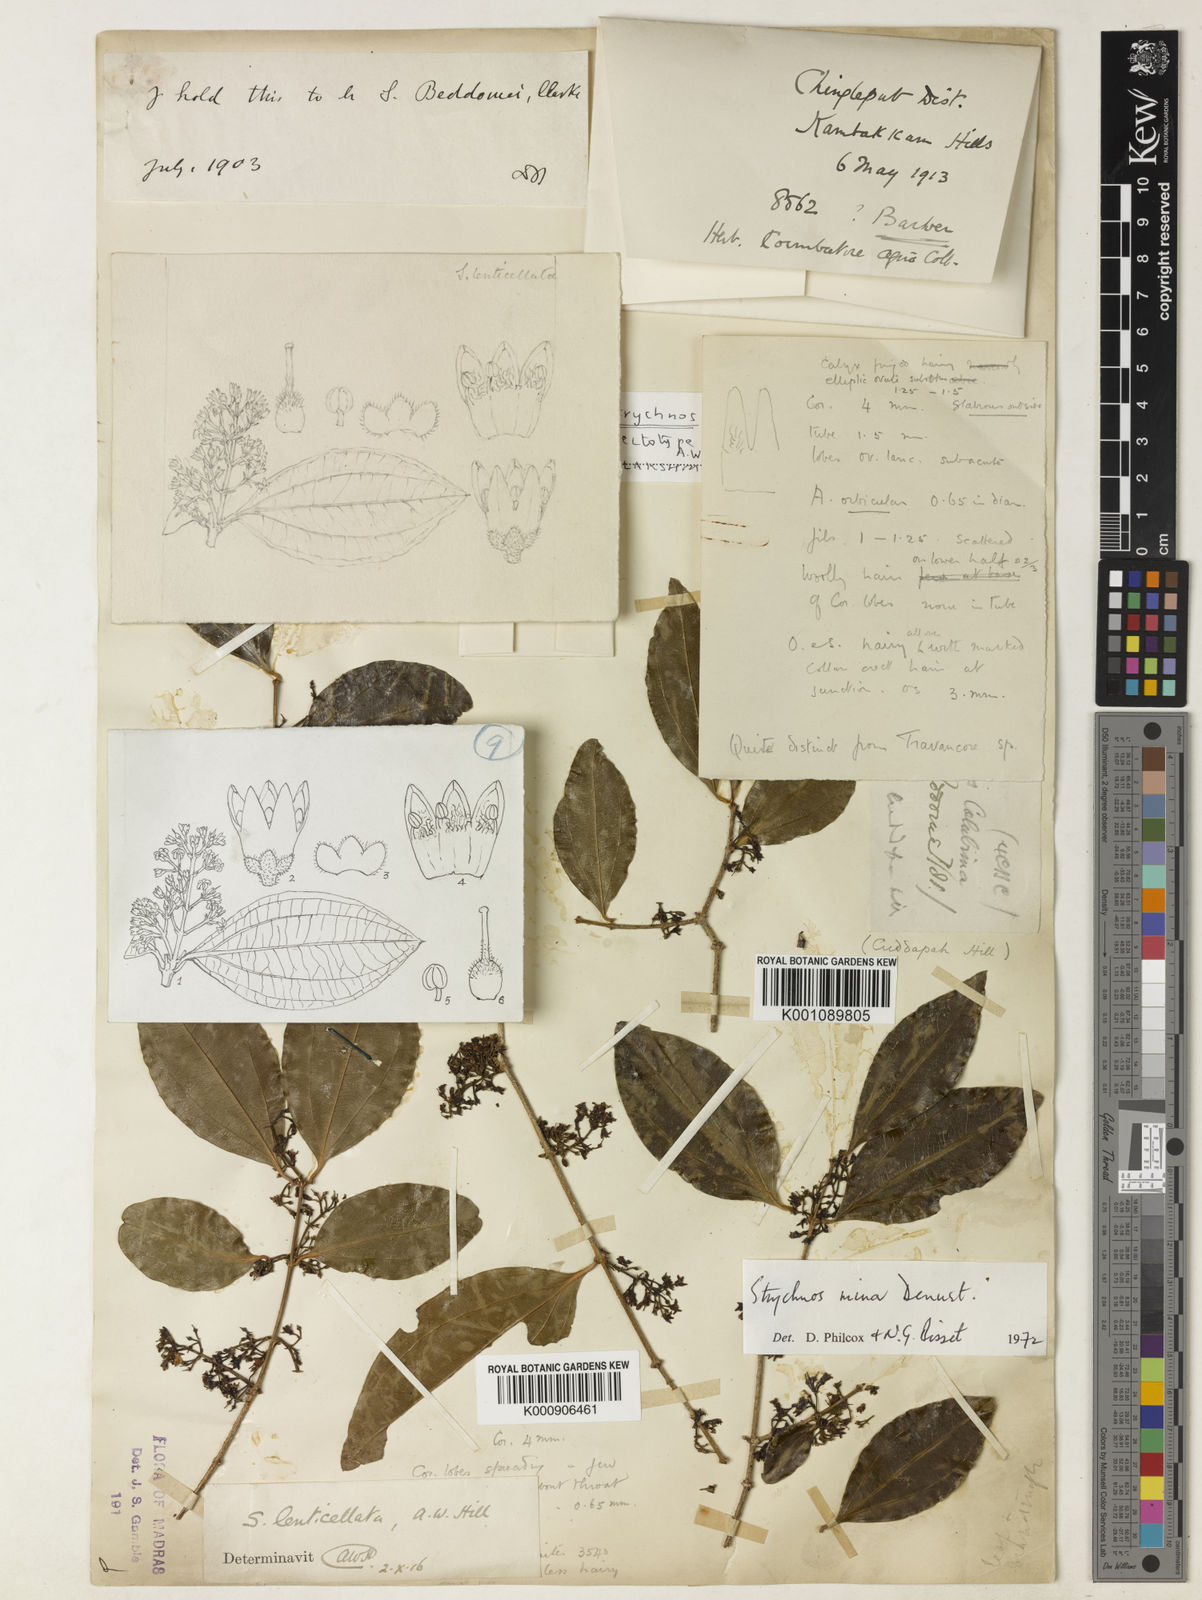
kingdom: Plantae
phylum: Tracheophyta
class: Magnoliopsida
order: Gentianales
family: Loganiaceae
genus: Strychnos
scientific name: Strychnos minor
